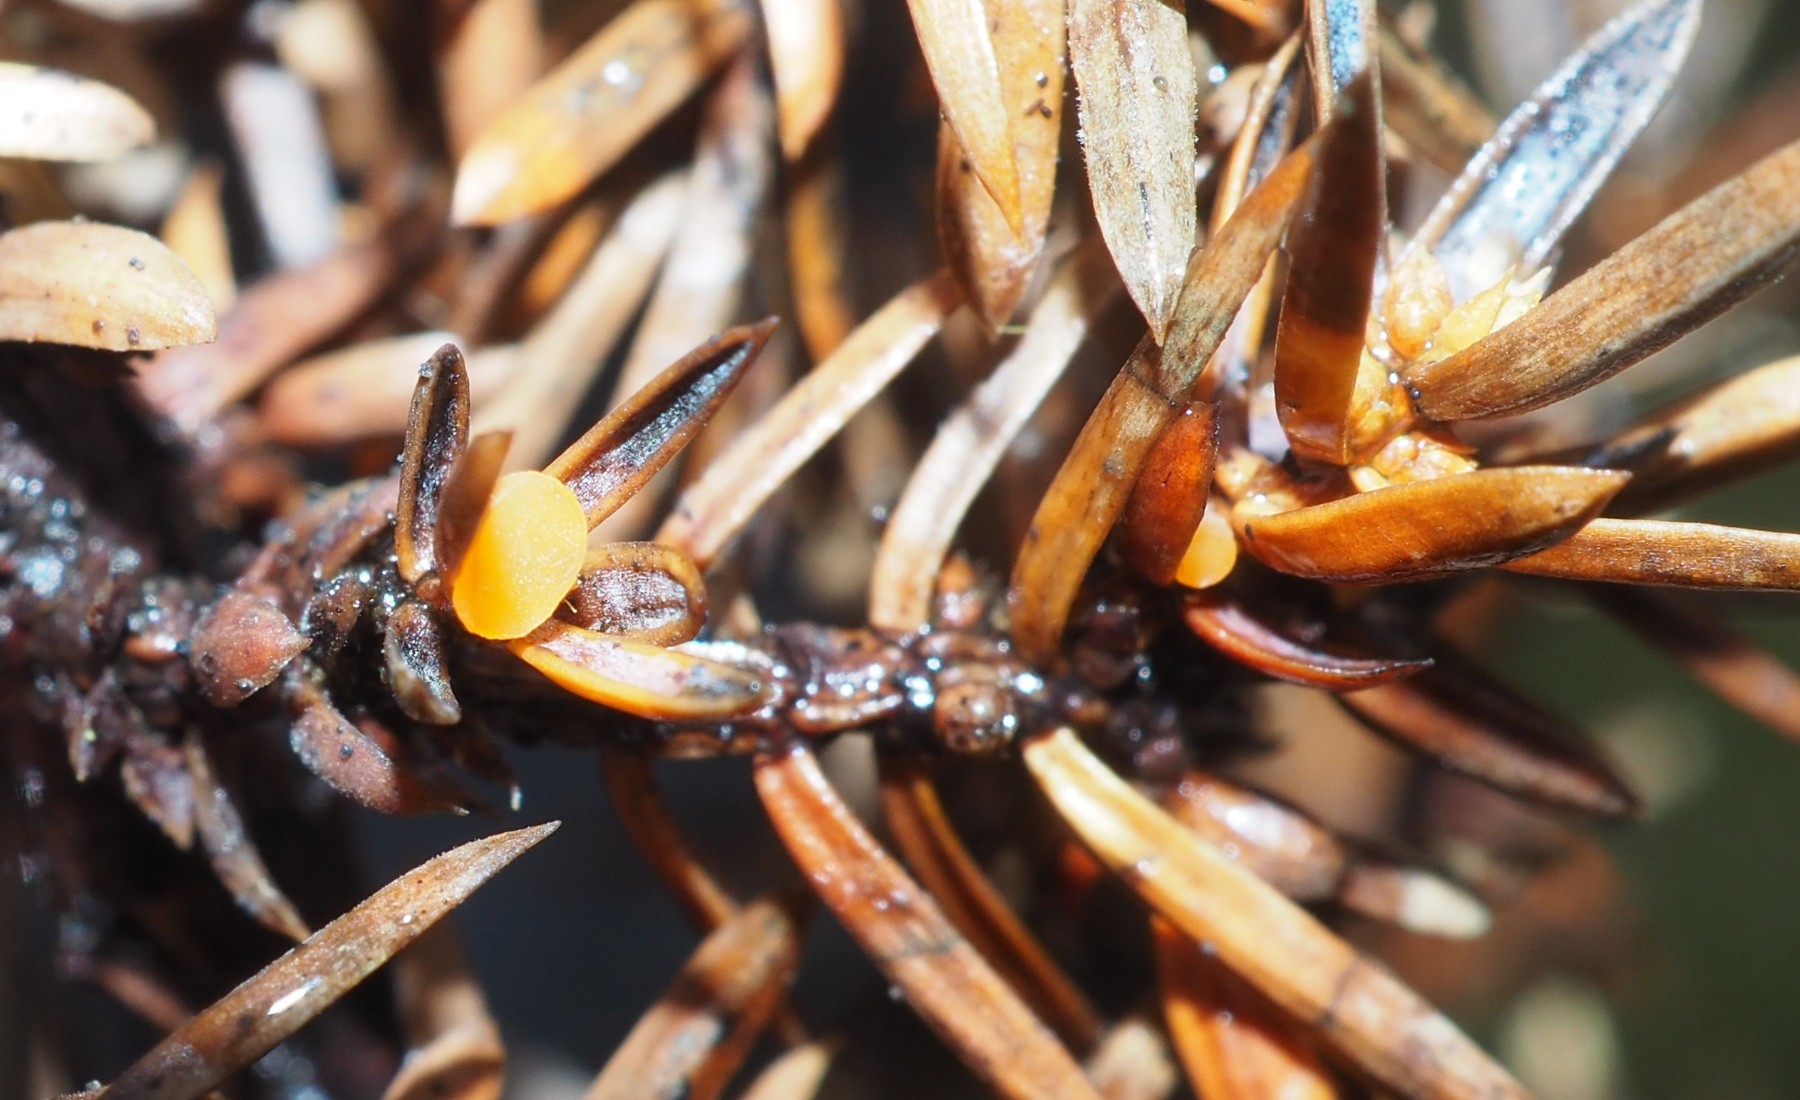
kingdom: Fungi
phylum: Ascomycota
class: Pezizomycetes
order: Pezizales
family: Sarcoscyphaceae
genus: Pithya
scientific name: Pithya cupressina
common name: lille dukatbæger
